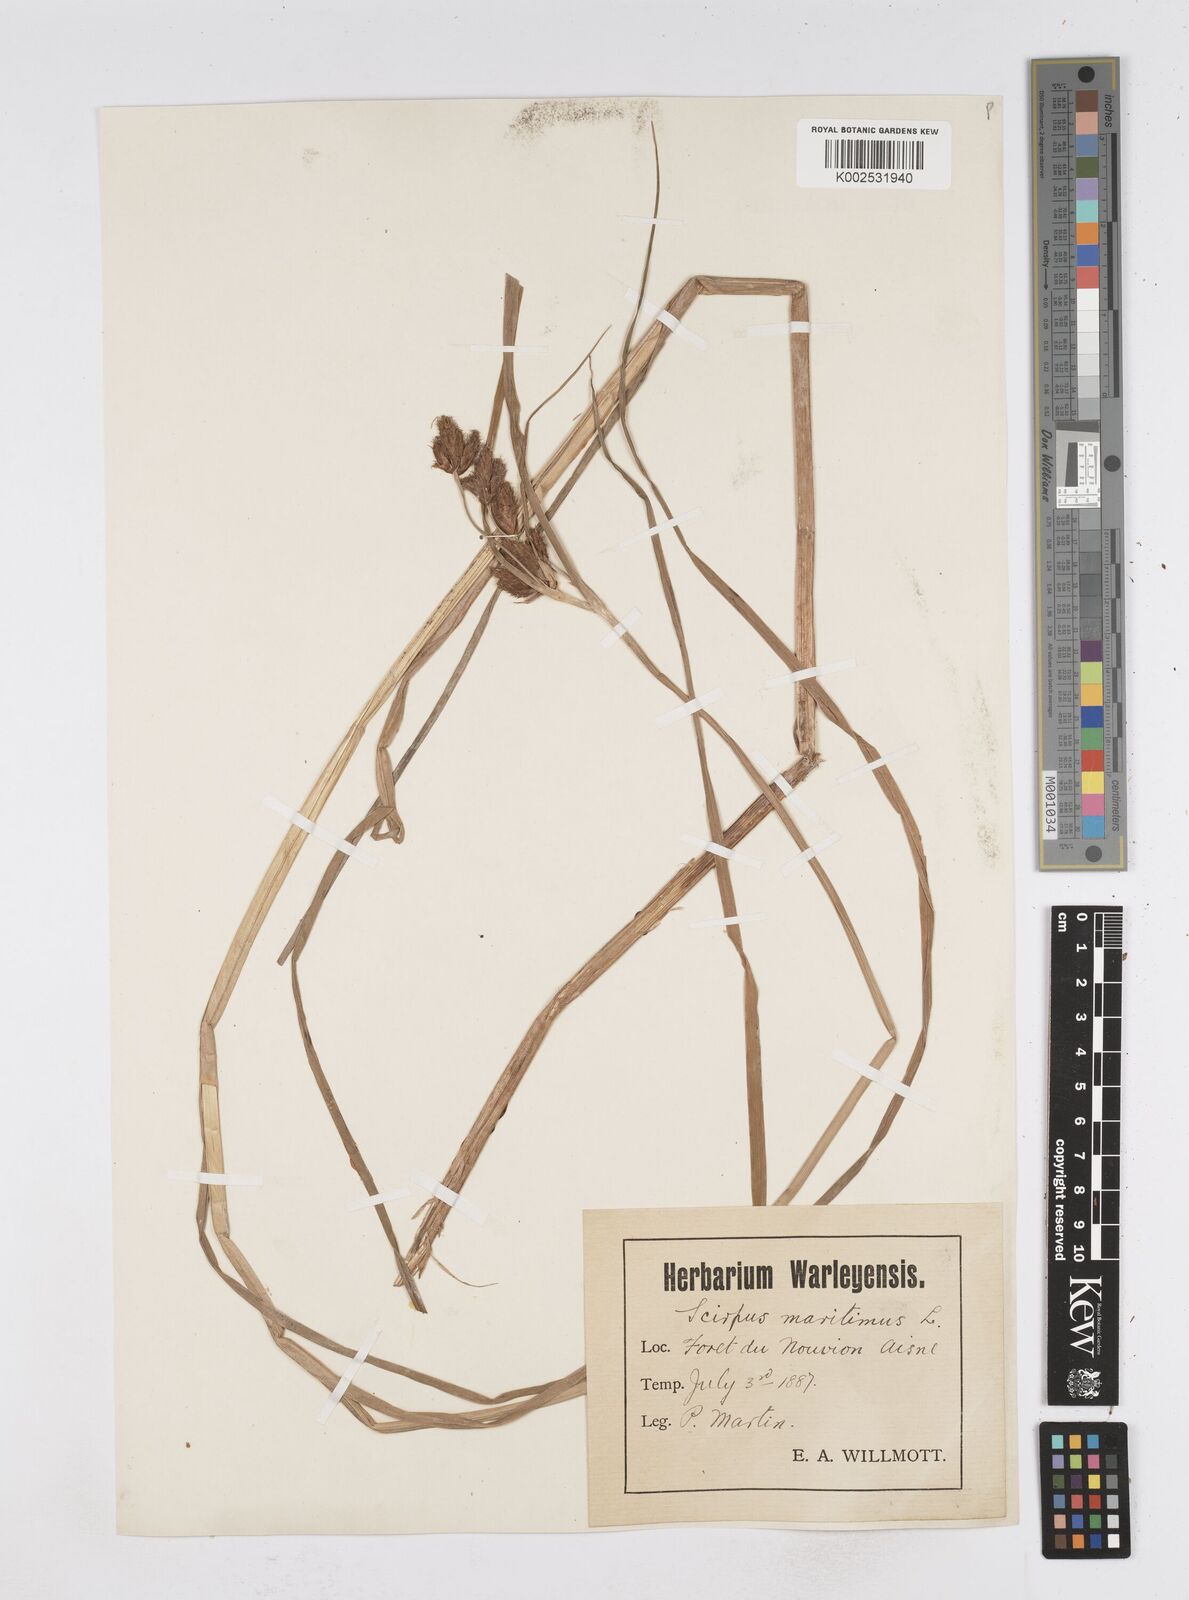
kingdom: Plantae
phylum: Tracheophyta
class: Liliopsida
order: Poales
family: Cyperaceae
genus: Bolboschoenus
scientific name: Bolboschoenus maritimus
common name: Sea club-rush
